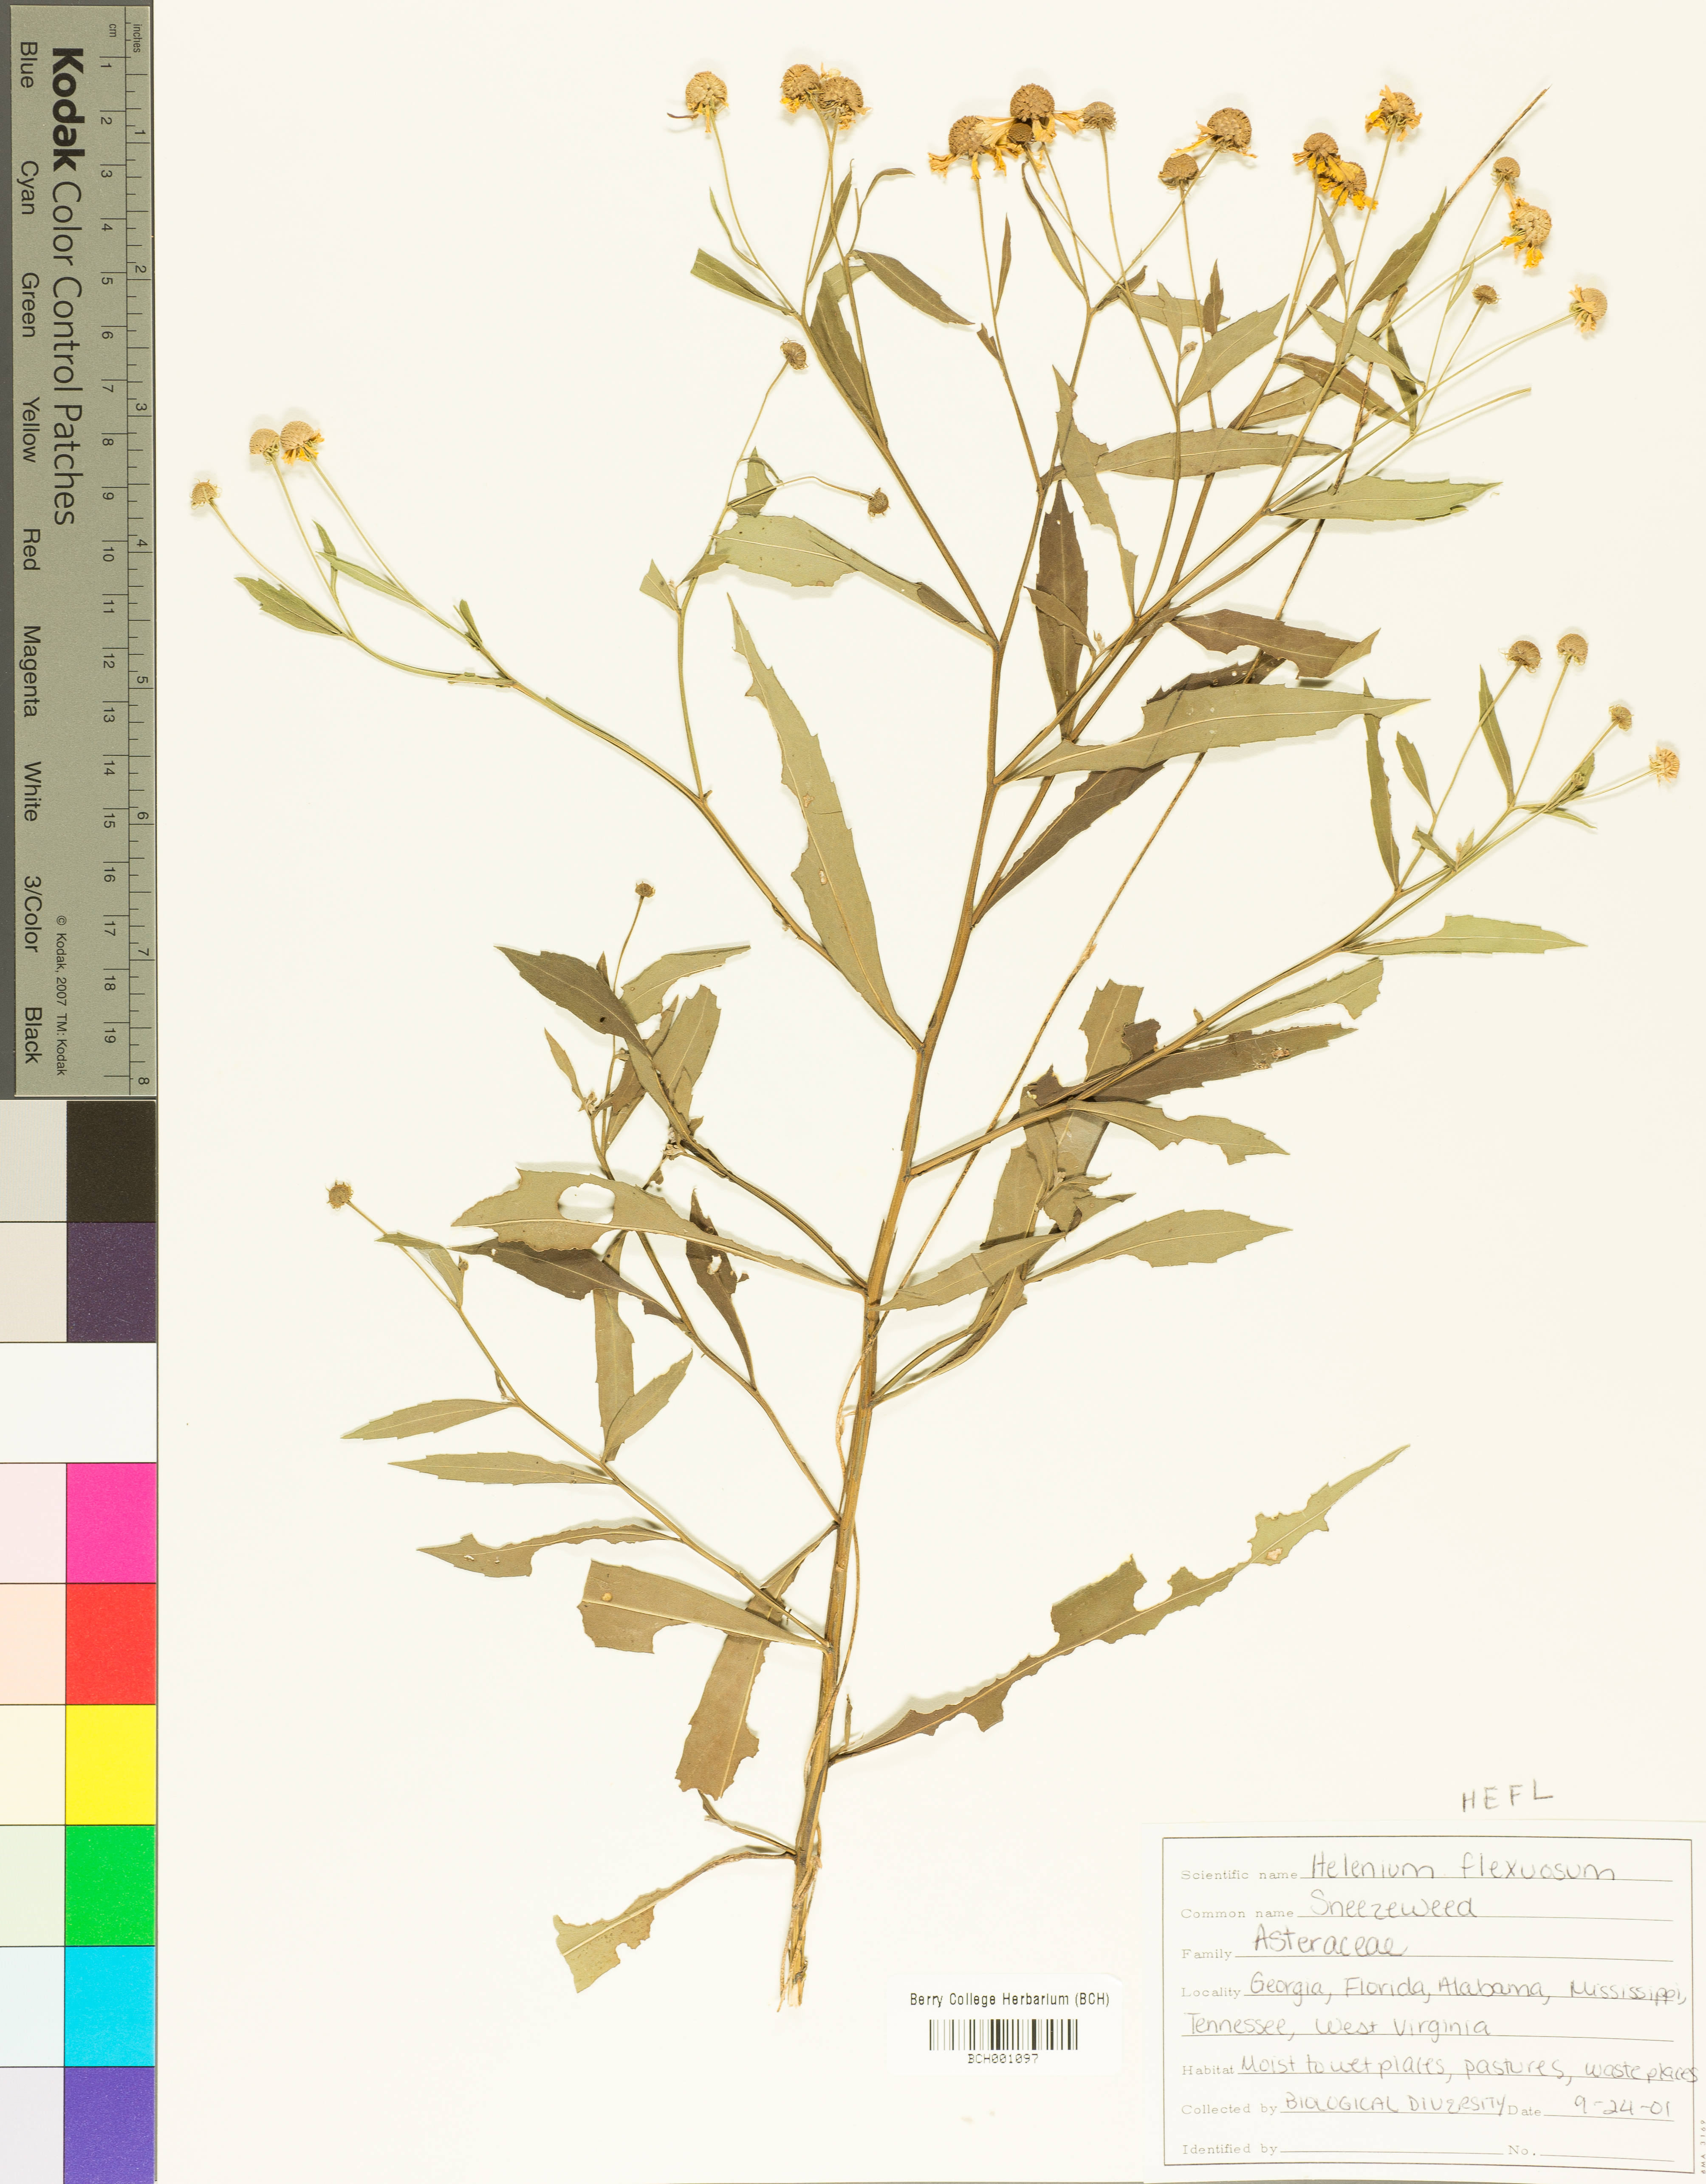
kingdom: Plantae
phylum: Tracheophyta
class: Magnoliopsida
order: Asterales
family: Asteraceae
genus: Helenium
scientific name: Helenium flexuosum
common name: Naked-flowered sneezeweed
